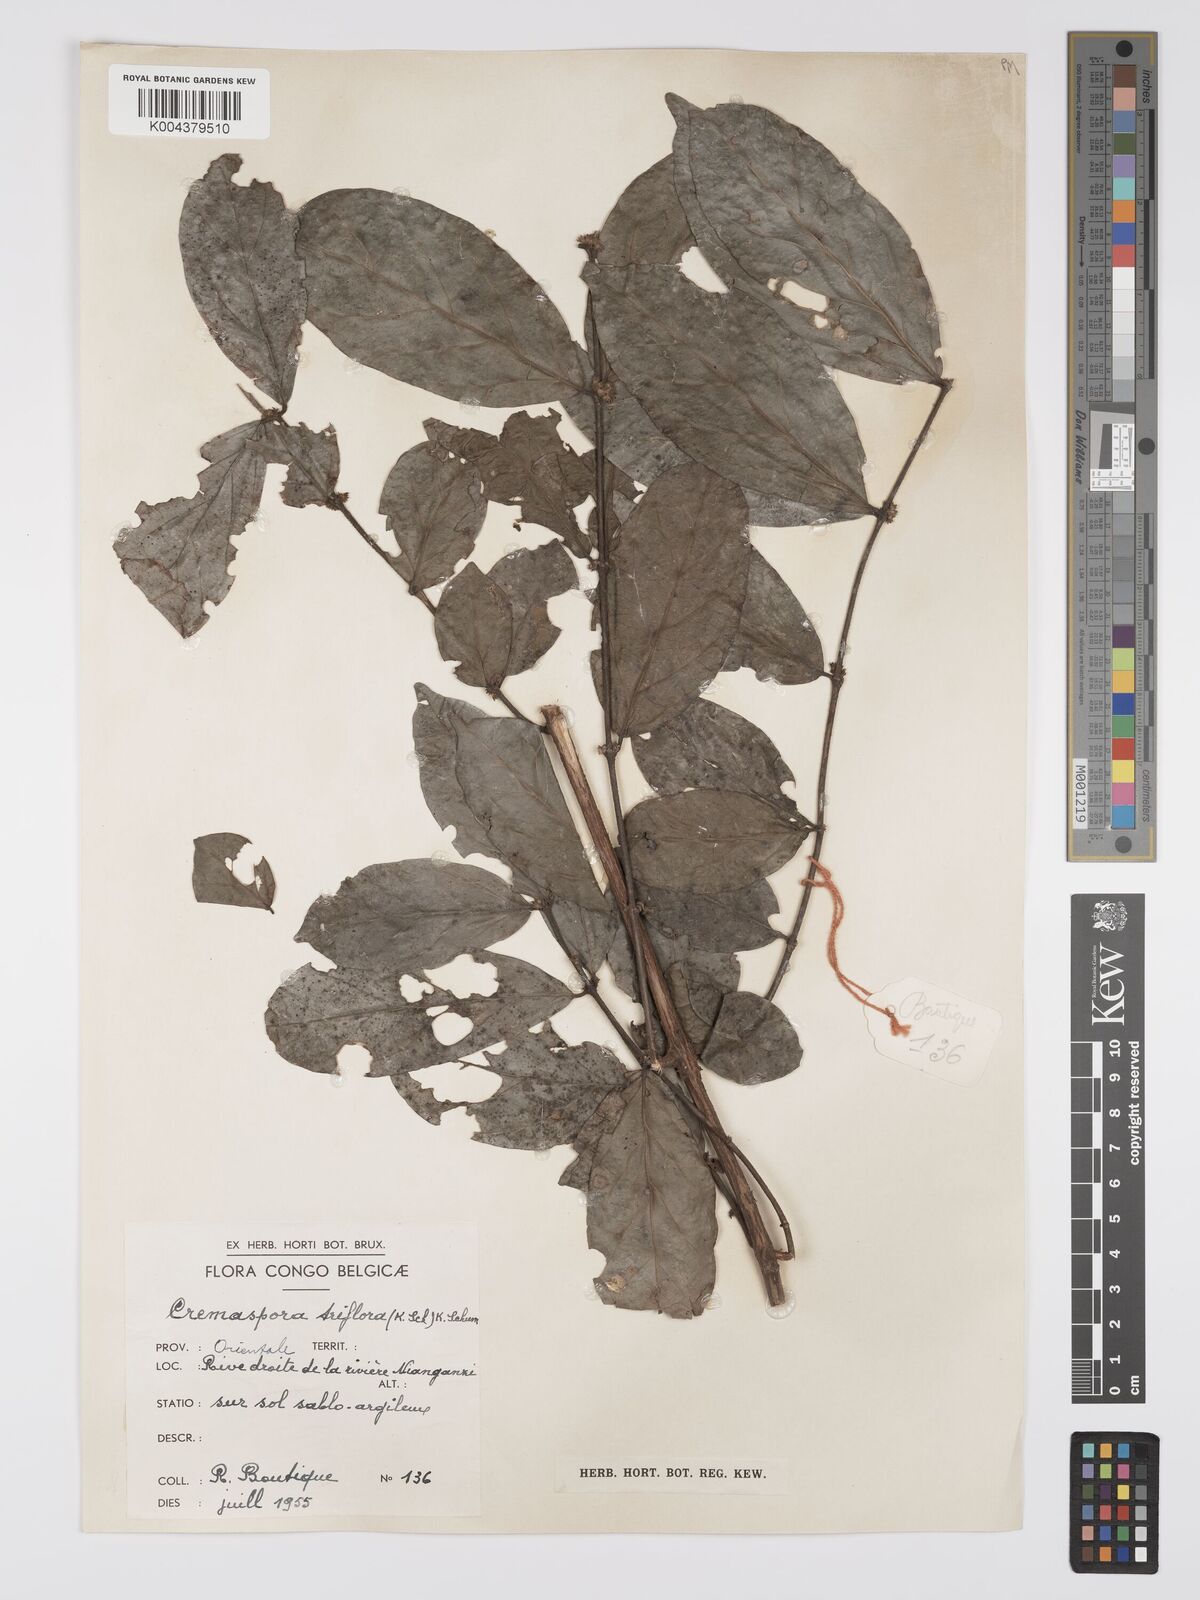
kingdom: Plantae
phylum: Tracheophyta
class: Magnoliopsida
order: Gentianales
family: Rubiaceae
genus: Cremaspora
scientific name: Cremaspora triflora
